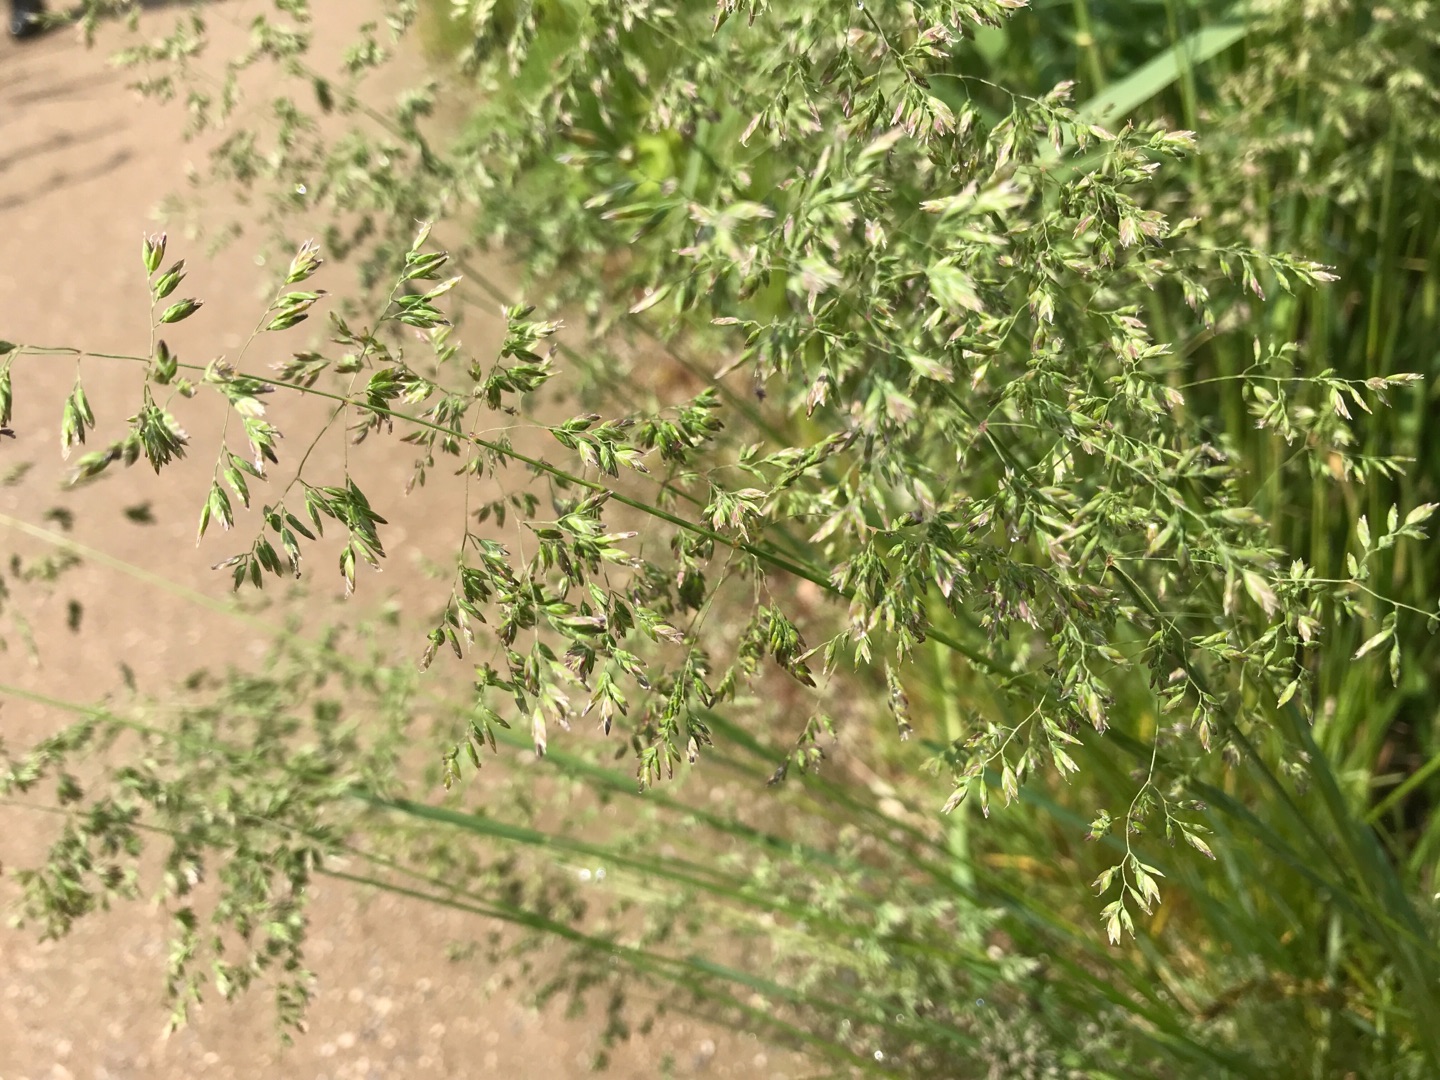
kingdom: Plantae
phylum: Tracheophyta
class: Liliopsida
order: Poales
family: Poaceae
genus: Poa
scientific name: Poa
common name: Rapgræsslægten
